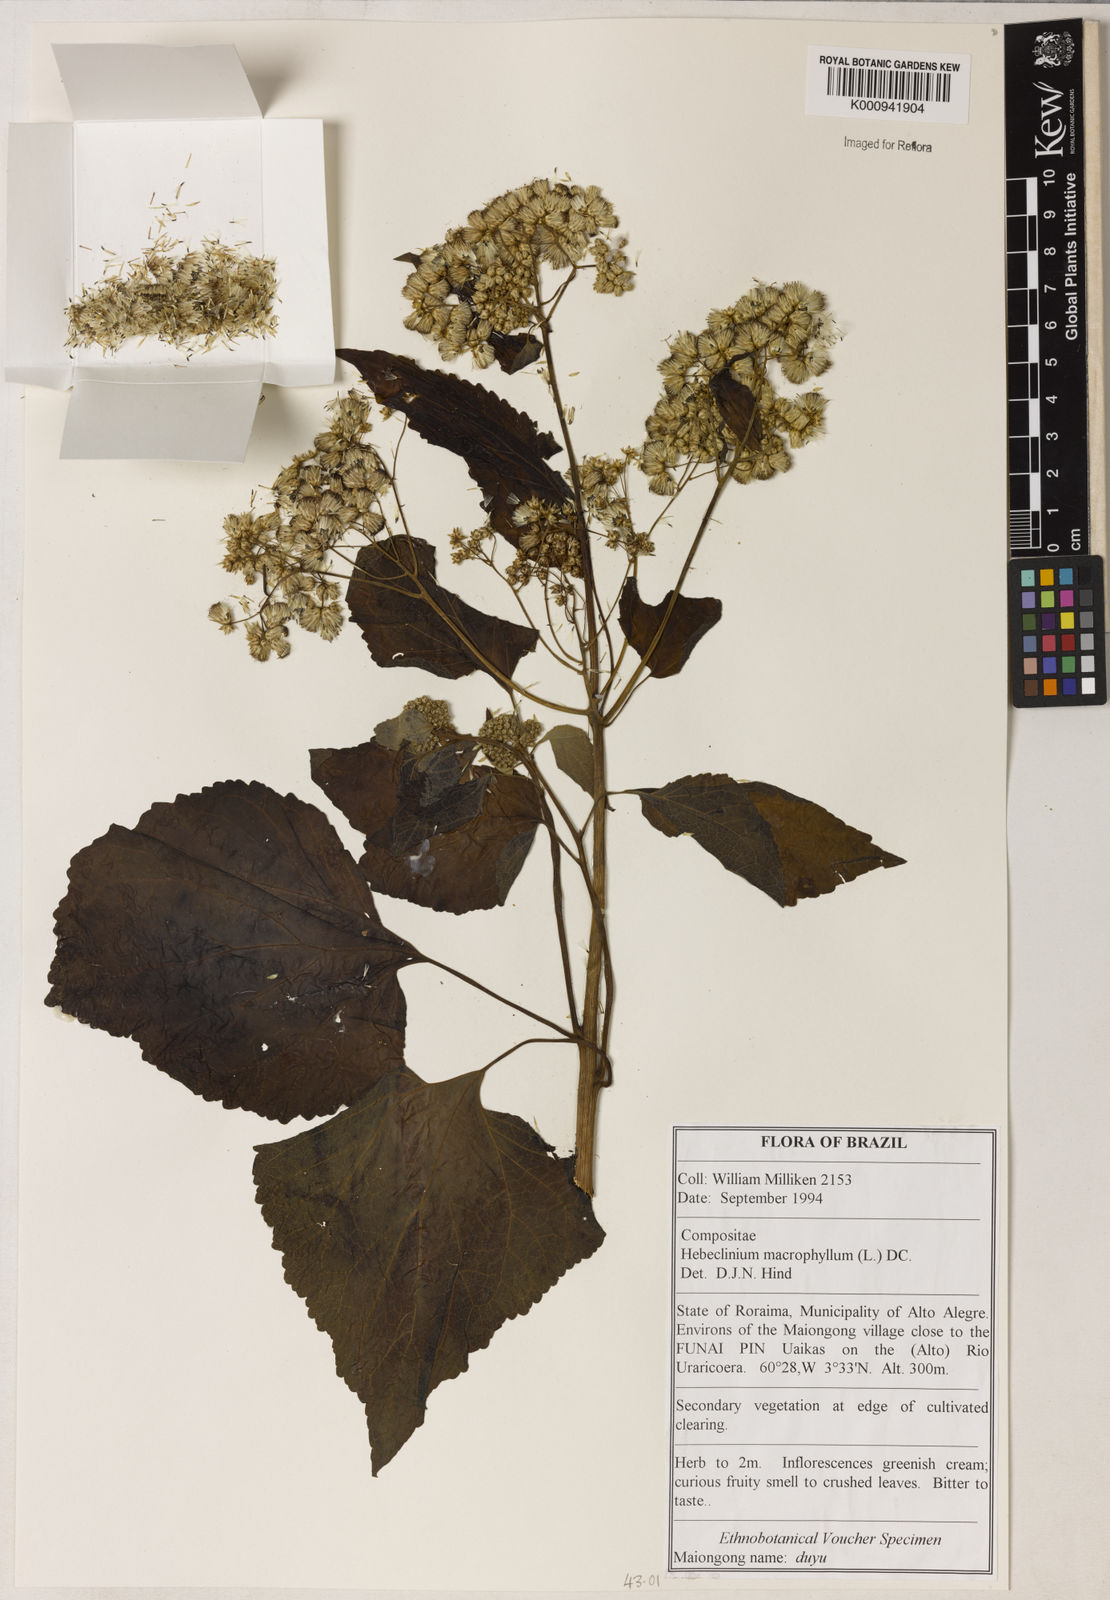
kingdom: Plantae
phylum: Tracheophyta
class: Magnoliopsida
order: Asterales
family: Asteraceae
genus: Hebeclinium
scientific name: Hebeclinium macrophyllum
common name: Largeleaf thoroughwort
